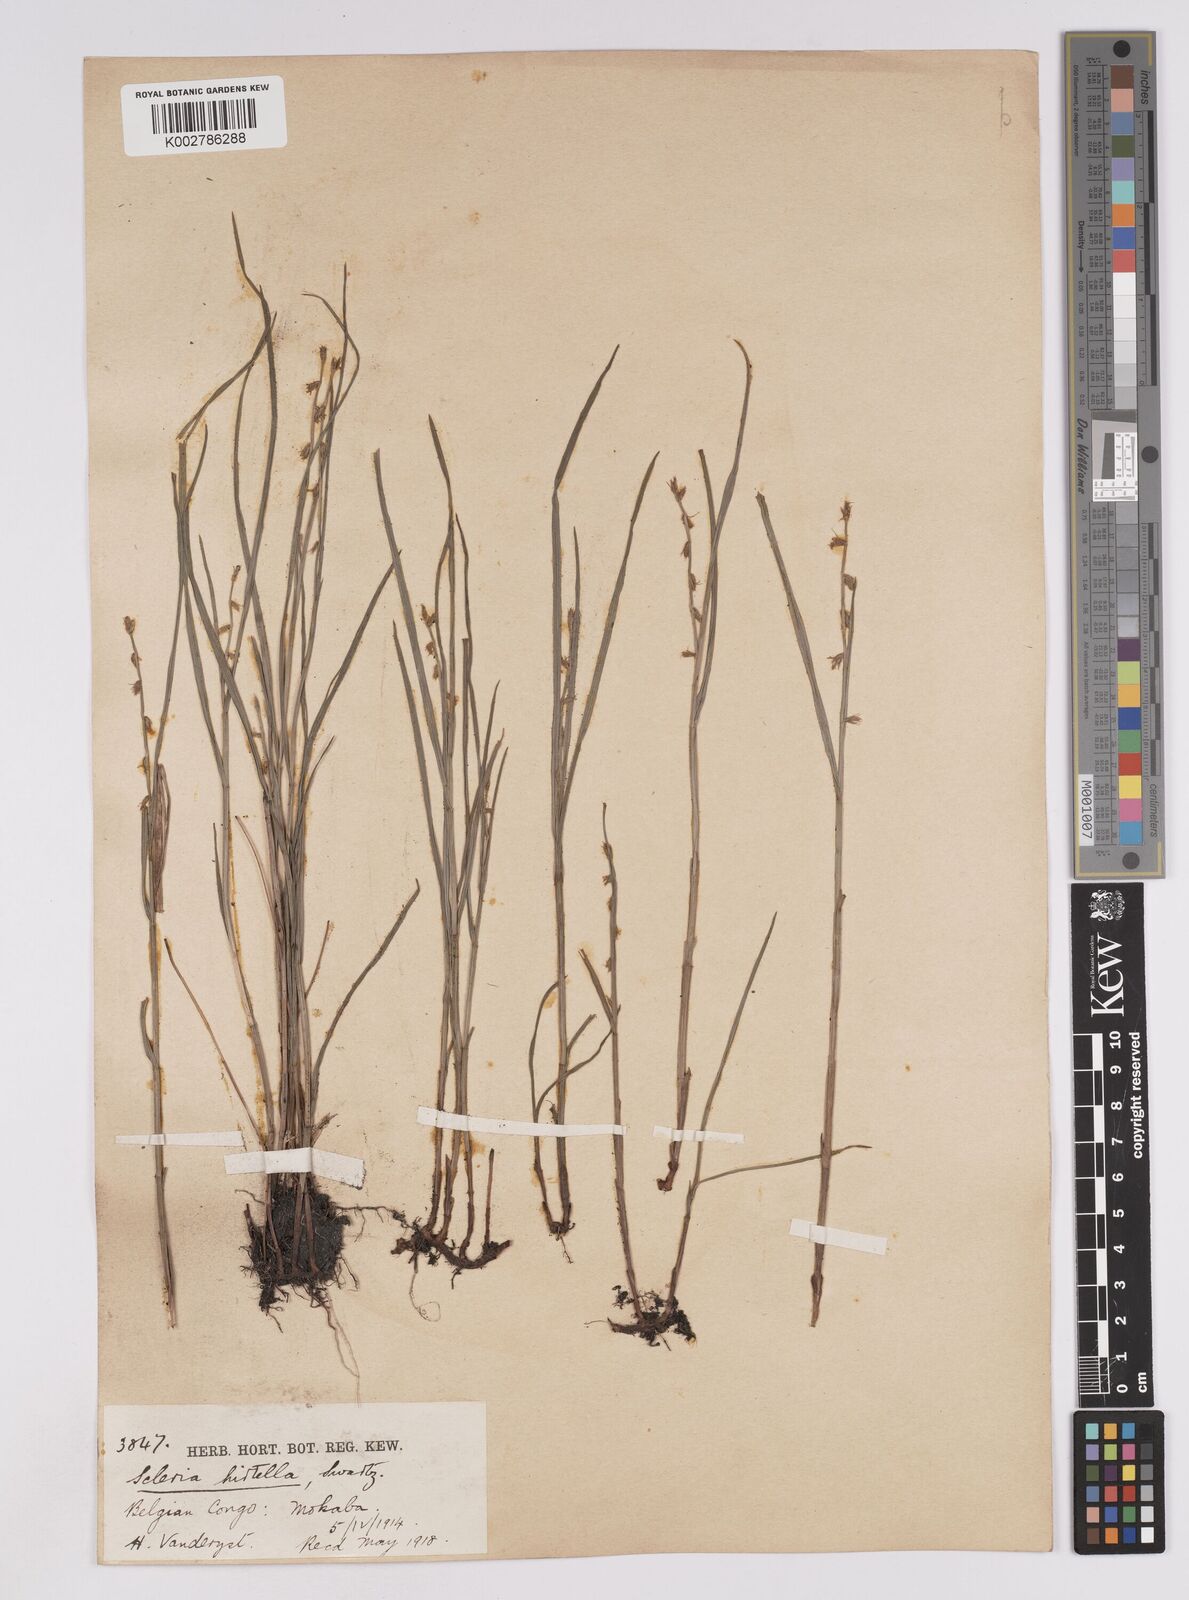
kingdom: Plantae
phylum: Tracheophyta
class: Liliopsida
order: Poales
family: Cyperaceae
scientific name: Cyperaceae
